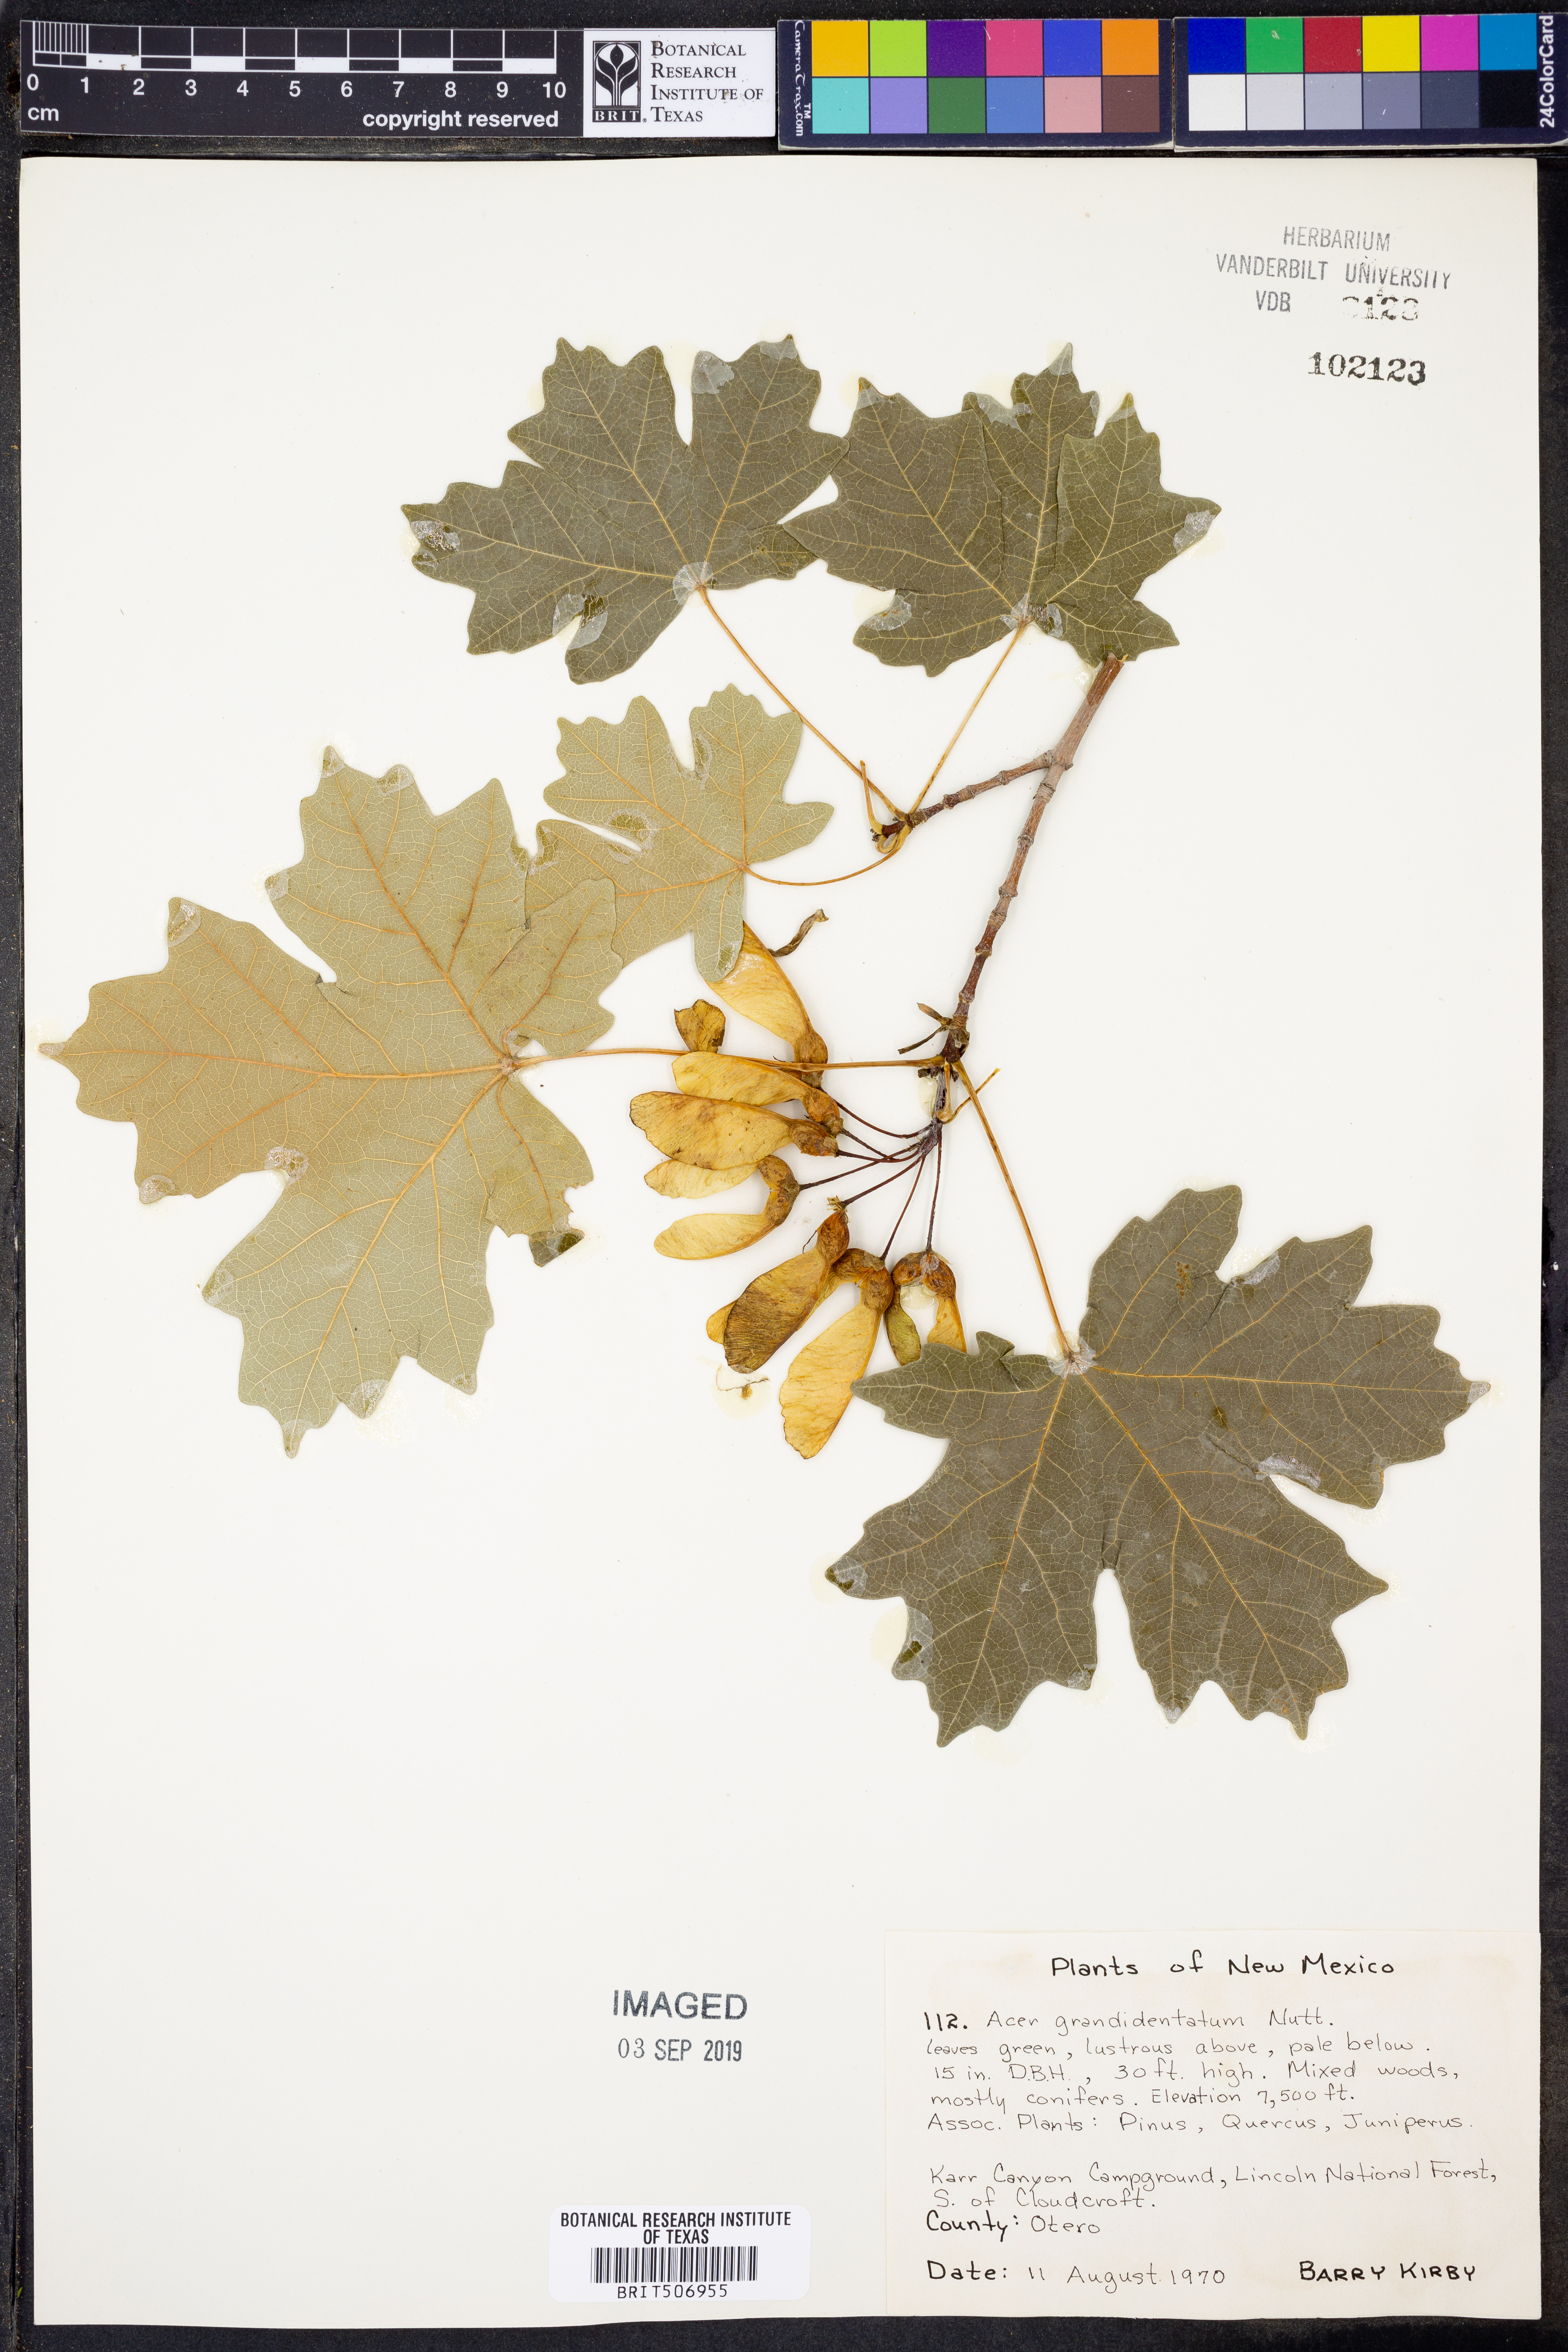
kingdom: Plantae
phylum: Tracheophyta
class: Magnoliopsida
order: Sapindales
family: Sapindaceae
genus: Acer
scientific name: Acer grandidentatum
